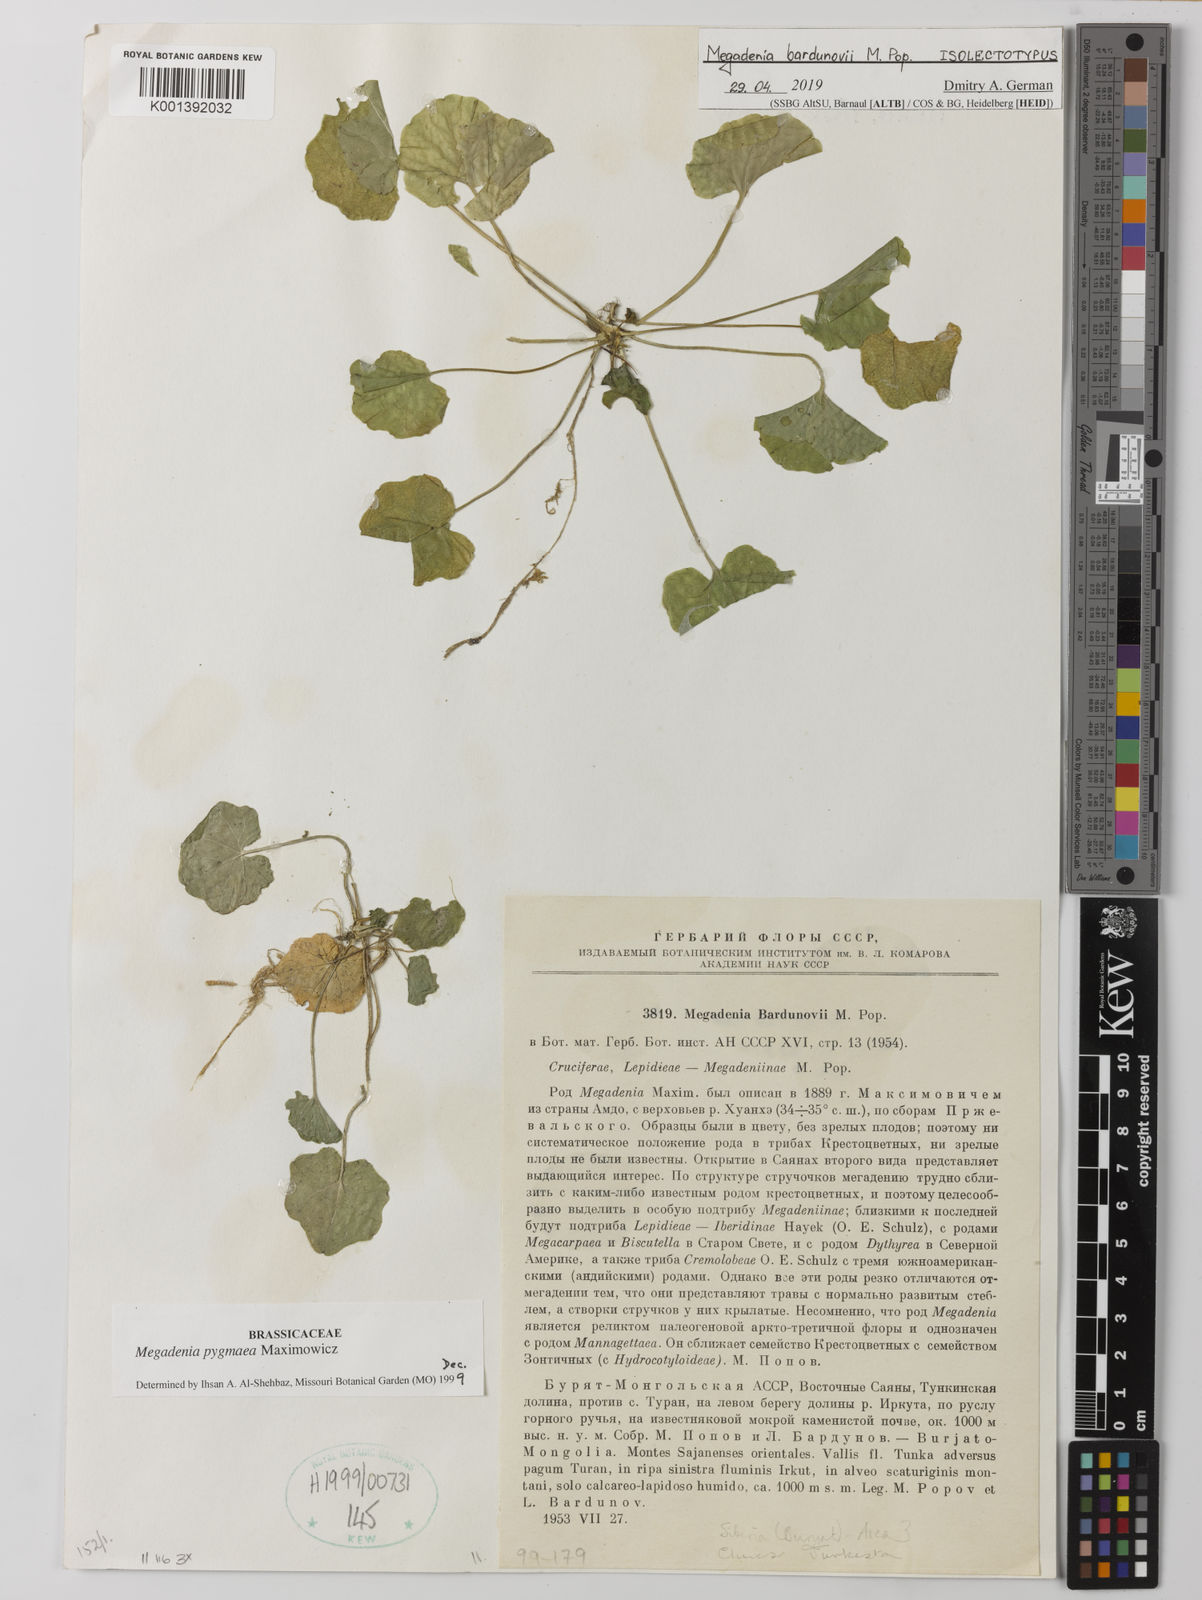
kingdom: Plantae
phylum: Tracheophyta
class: Magnoliopsida
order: Brassicales
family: Brassicaceae
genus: Megadenia
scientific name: Megadenia pygmaea
